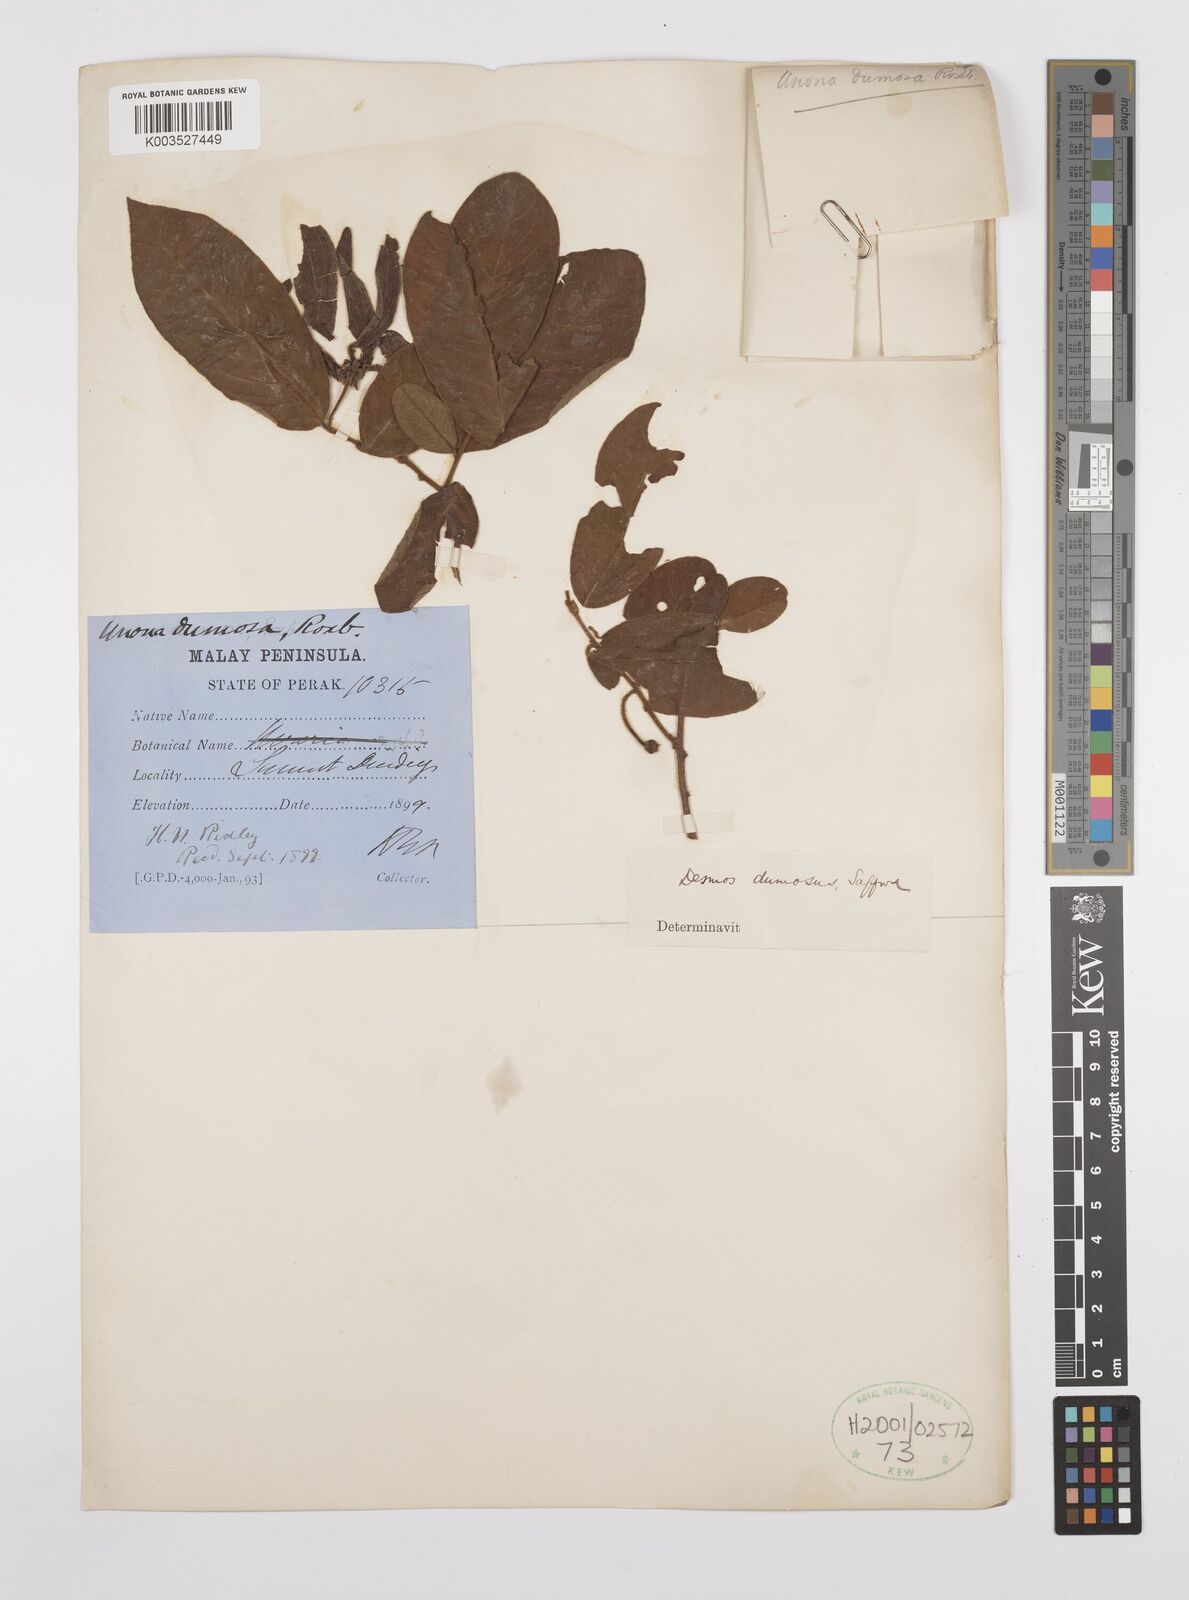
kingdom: Plantae
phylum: Tracheophyta
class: Magnoliopsida
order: Magnoliales
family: Annonaceae
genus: Desmos
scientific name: Desmos dumosus
